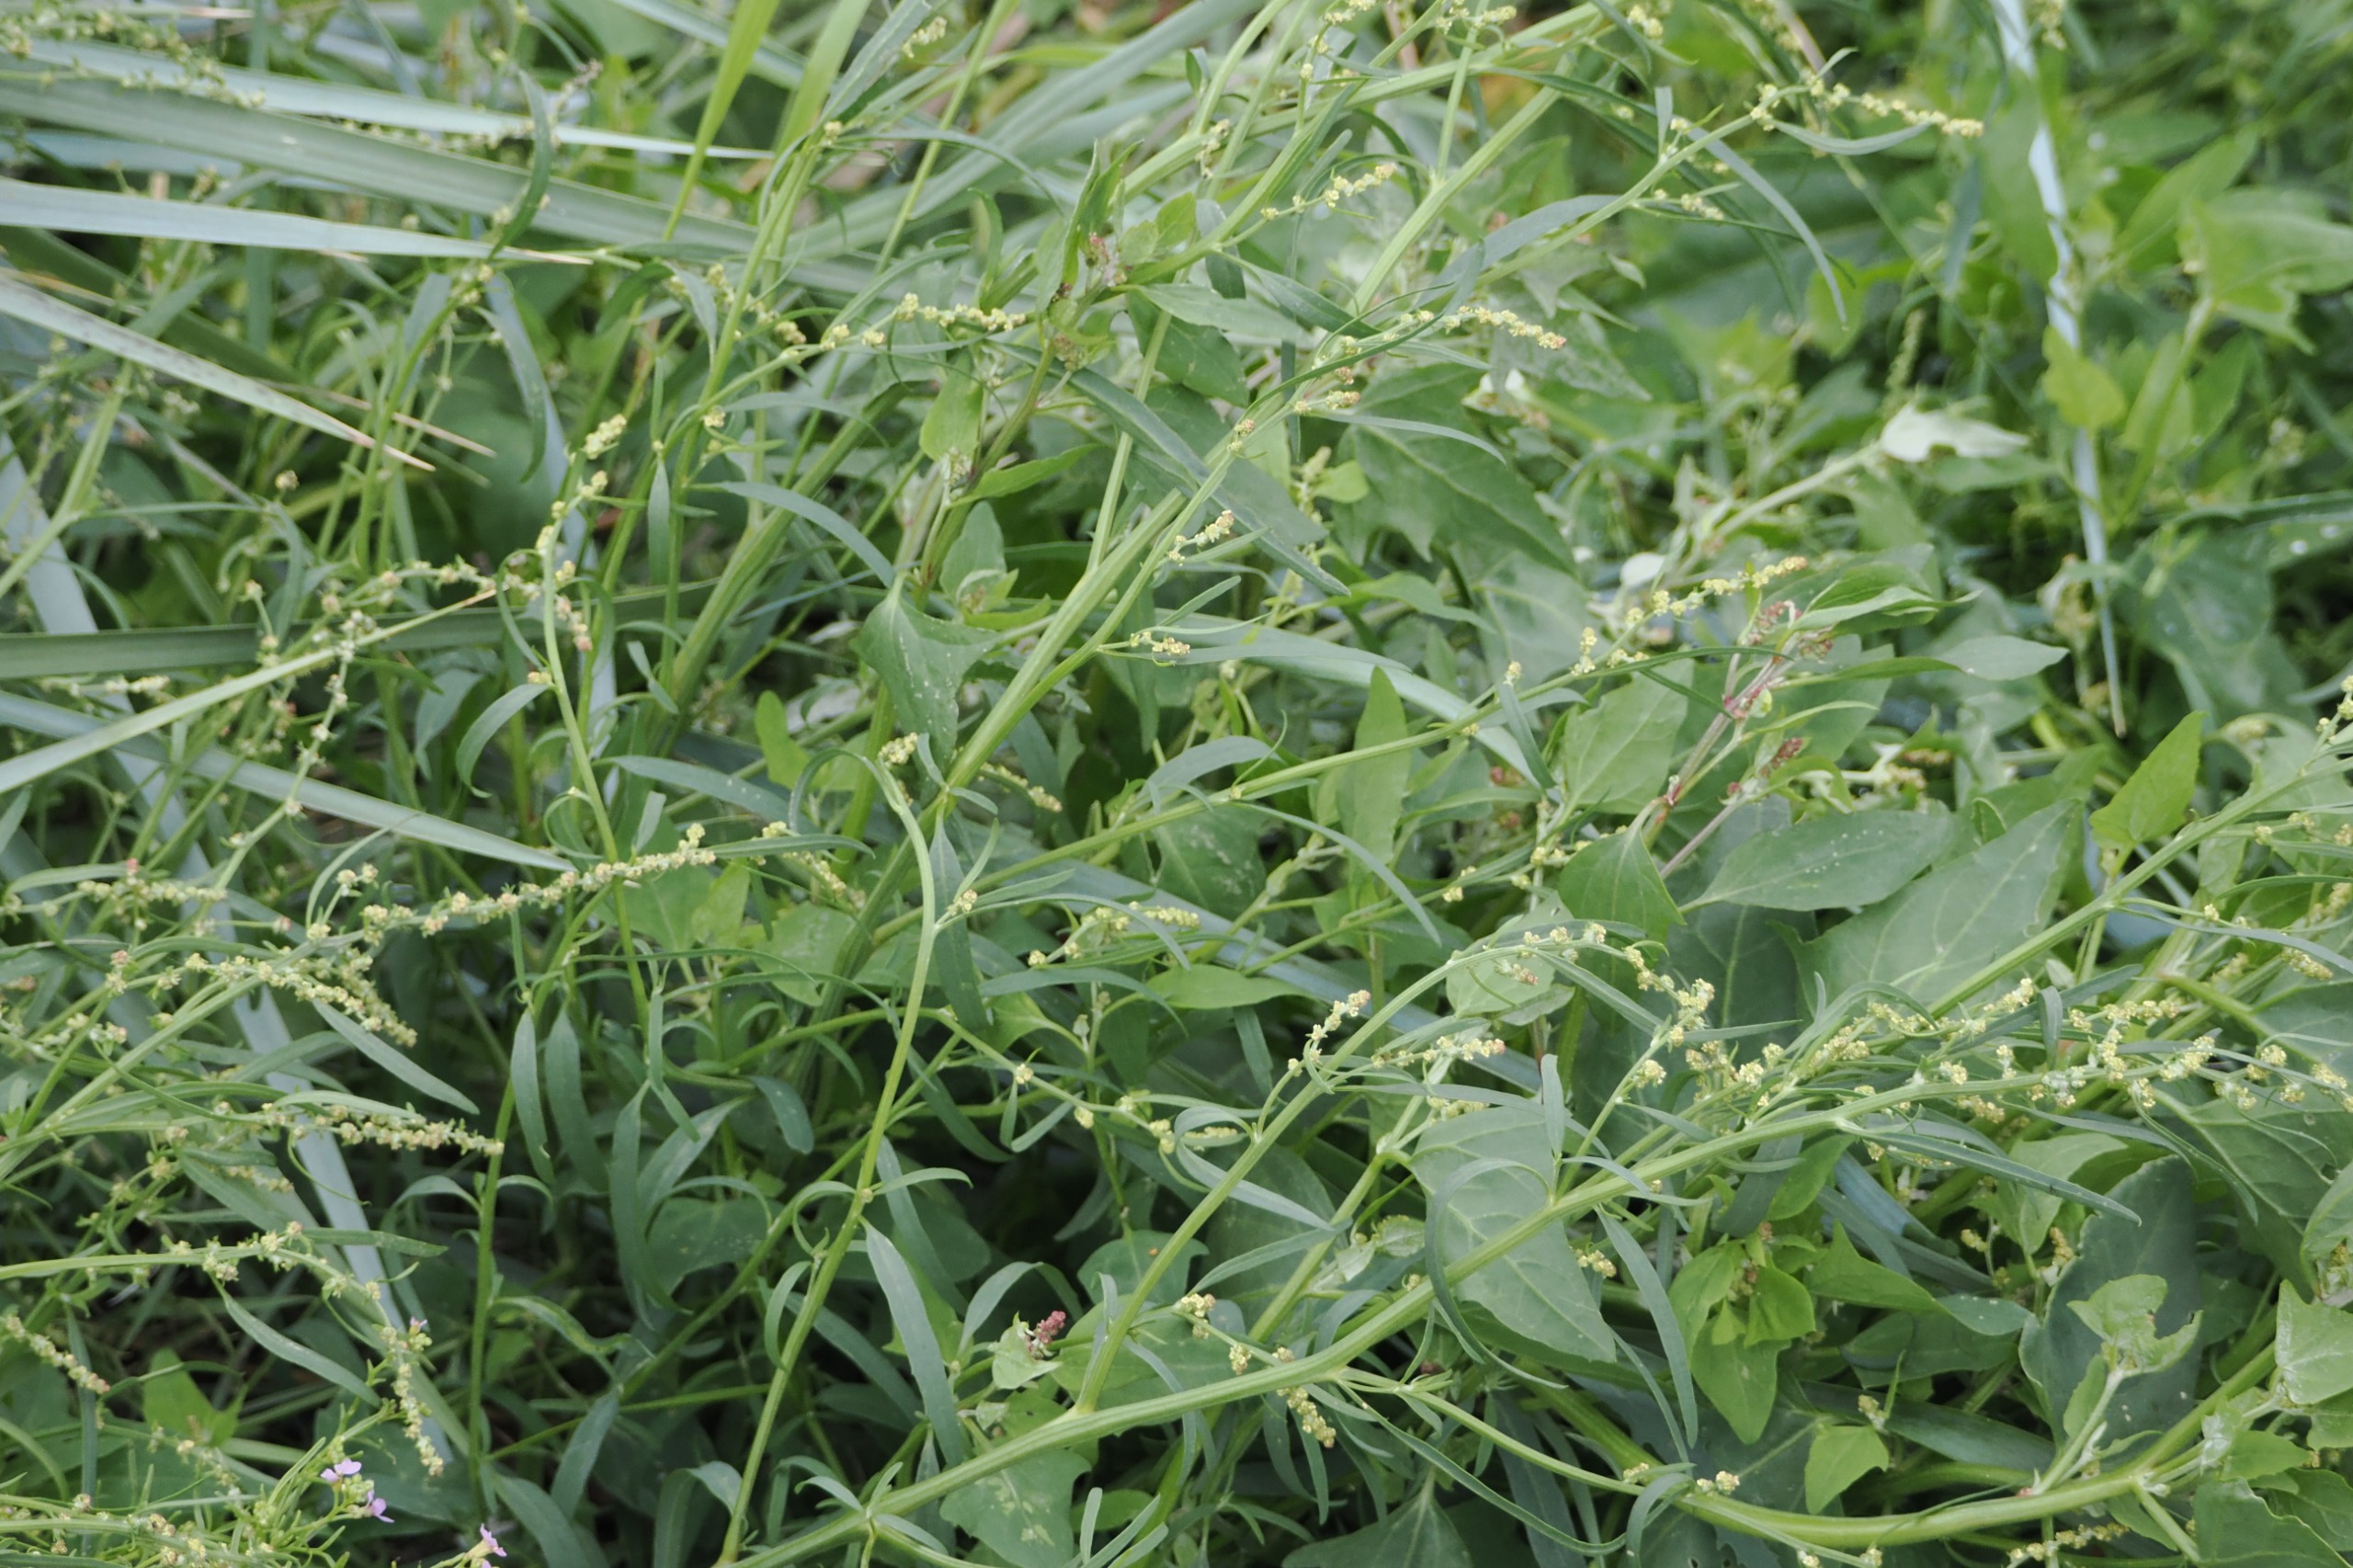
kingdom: Plantae
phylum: Tracheophyta
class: Magnoliopsida
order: Caryophyllales
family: Amaranthaceae
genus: Atriplex
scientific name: Atriplex prostrata
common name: Spyd-mælde
